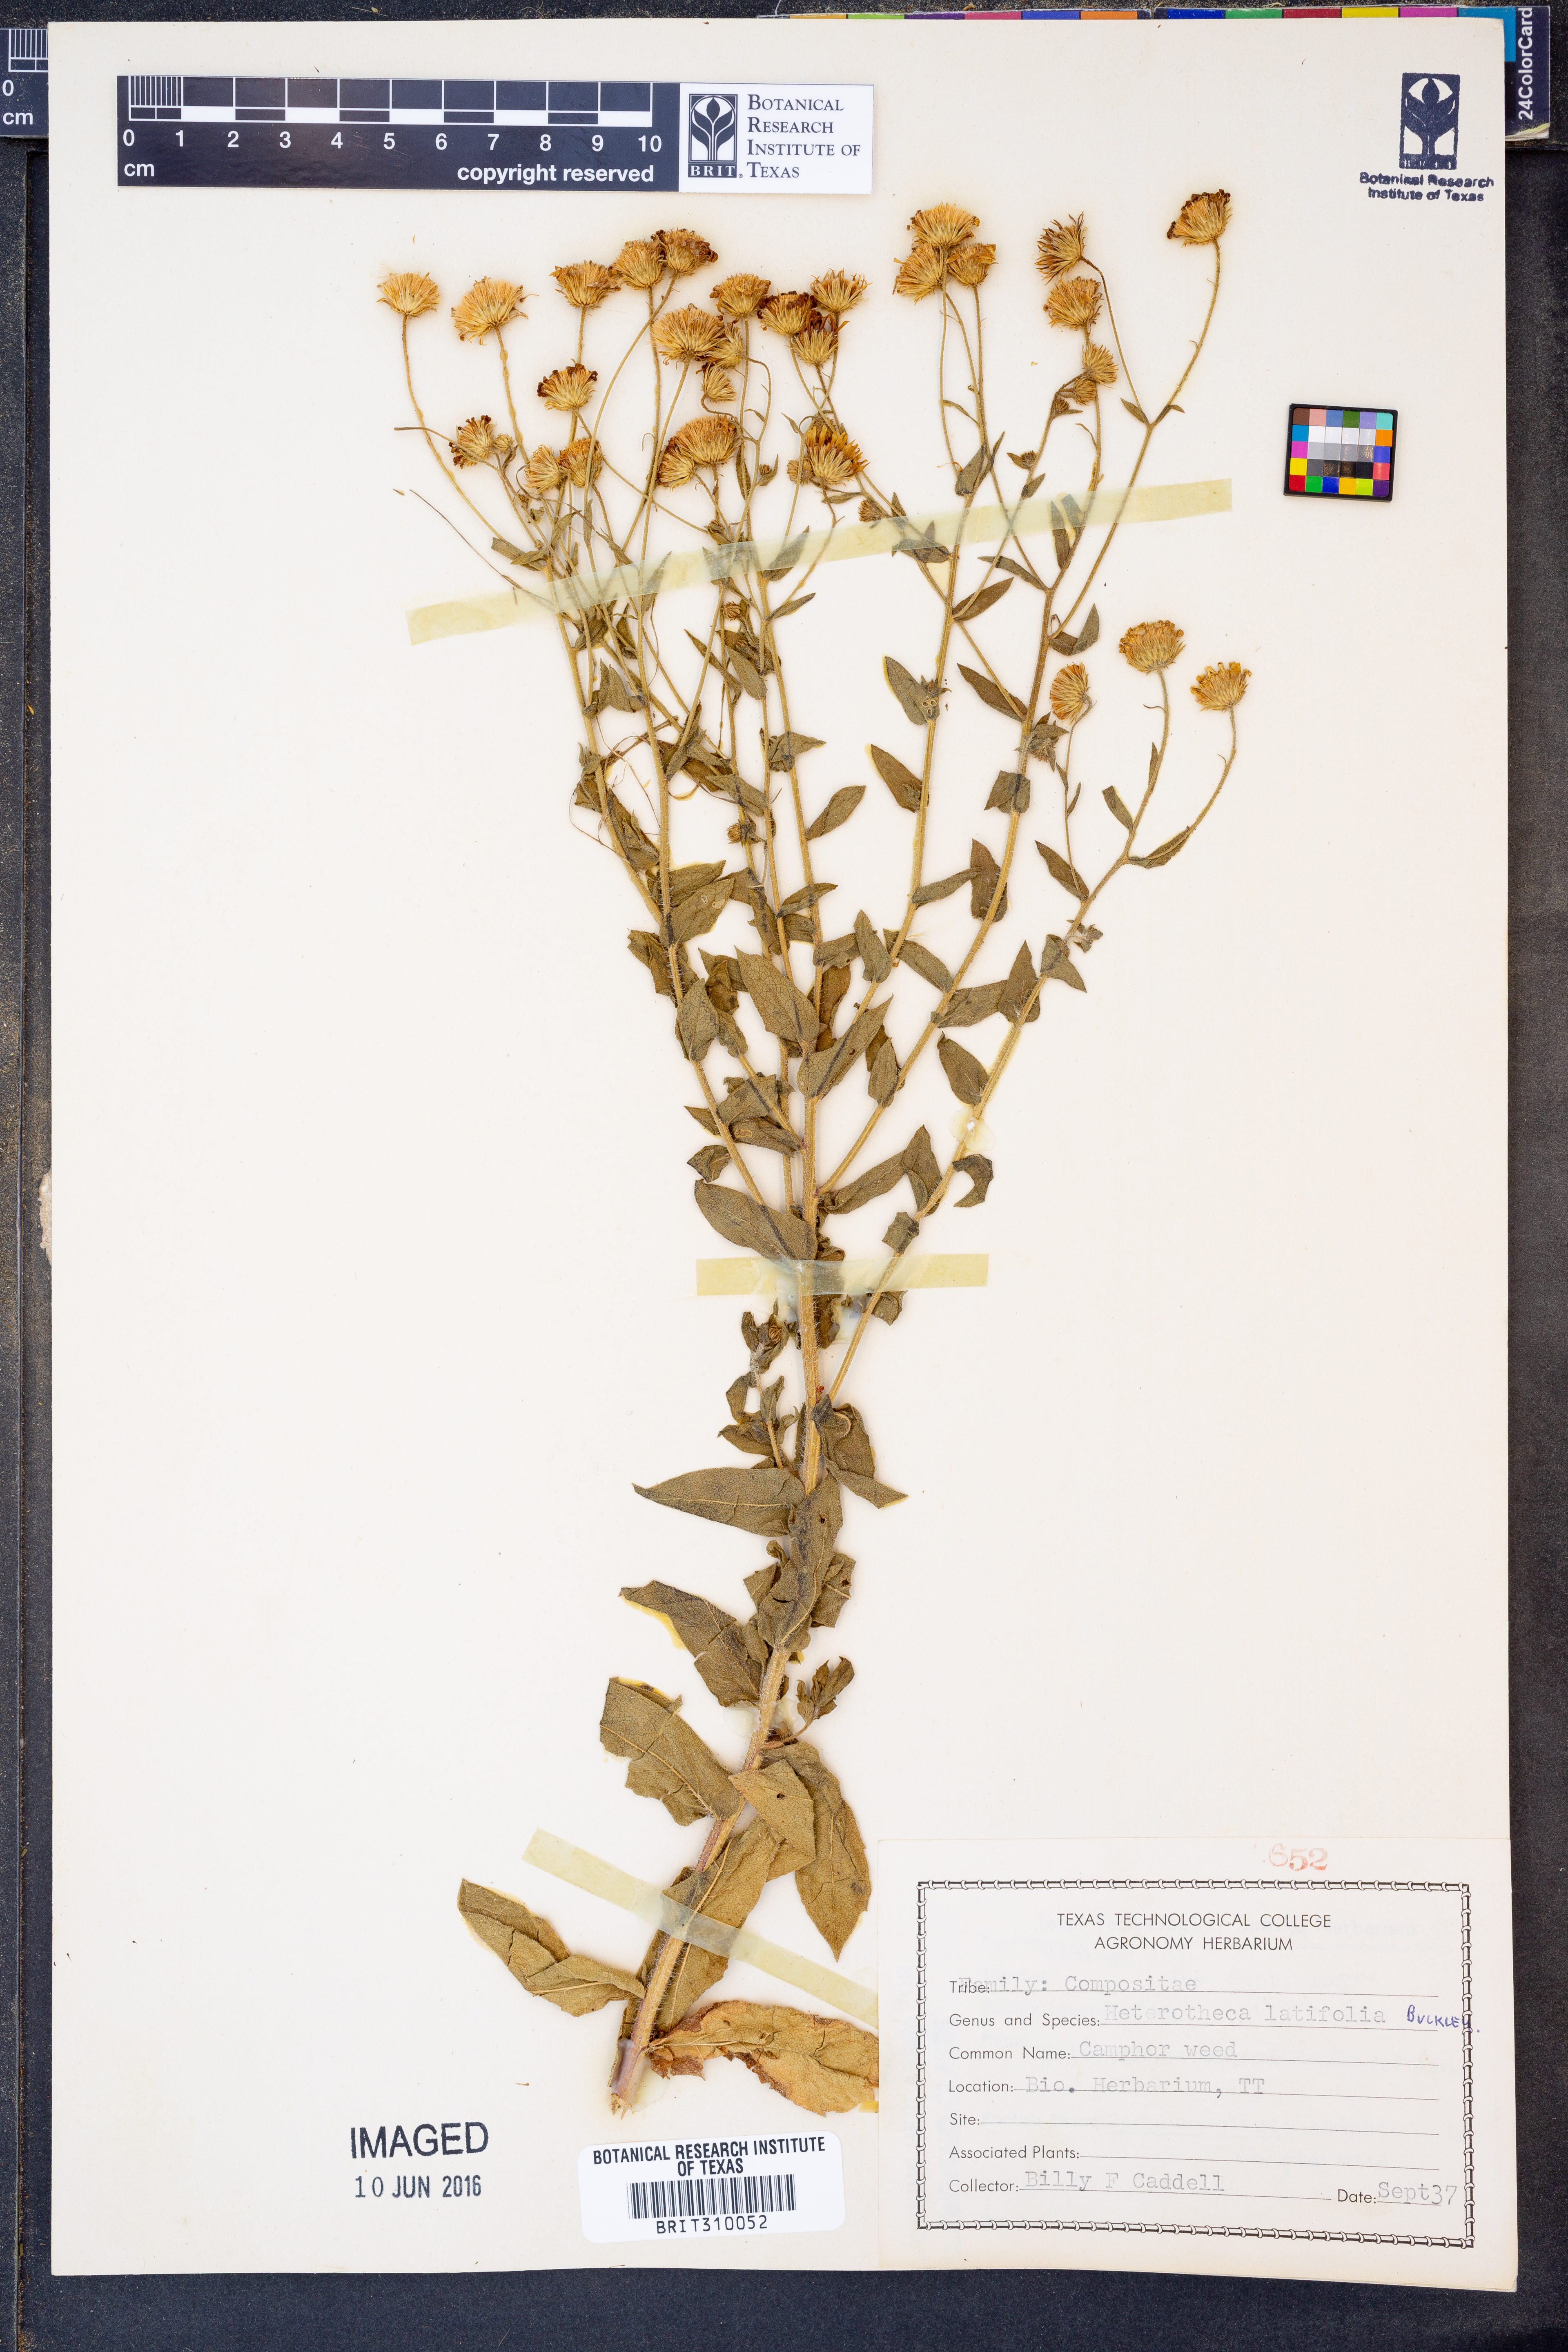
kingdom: Plantae
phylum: Tracheophyta
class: Magnoliopsida
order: Asterales
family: Asteraceae
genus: Heterotheca
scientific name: Heterotheca subaxillaris
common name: Camphorweed
